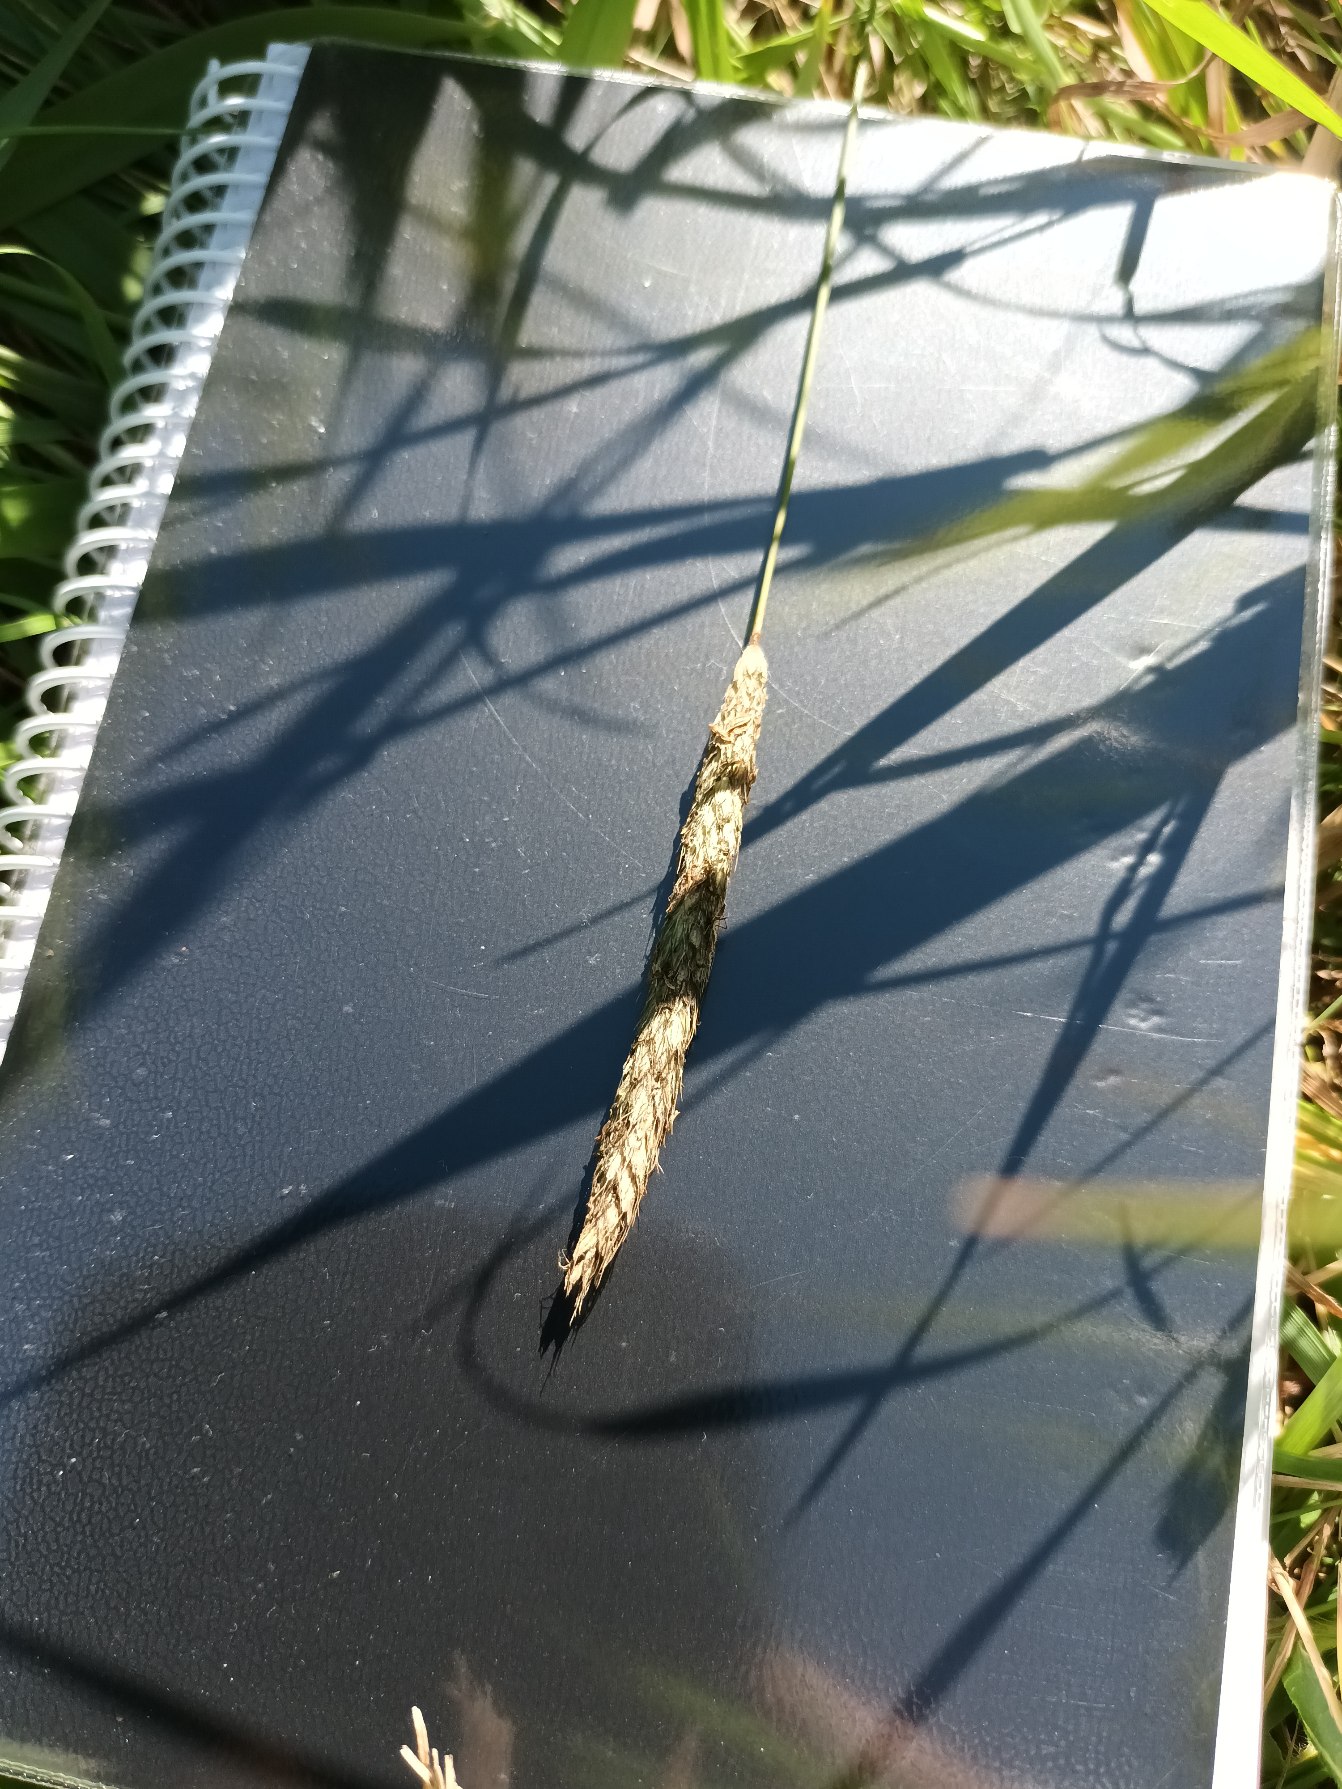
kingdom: Plantae
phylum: Tracheophyta
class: Liliopsida
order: Poales
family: Poaceae
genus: Alopecurus
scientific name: Alopecurus pratensis
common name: Eng-rævehale
